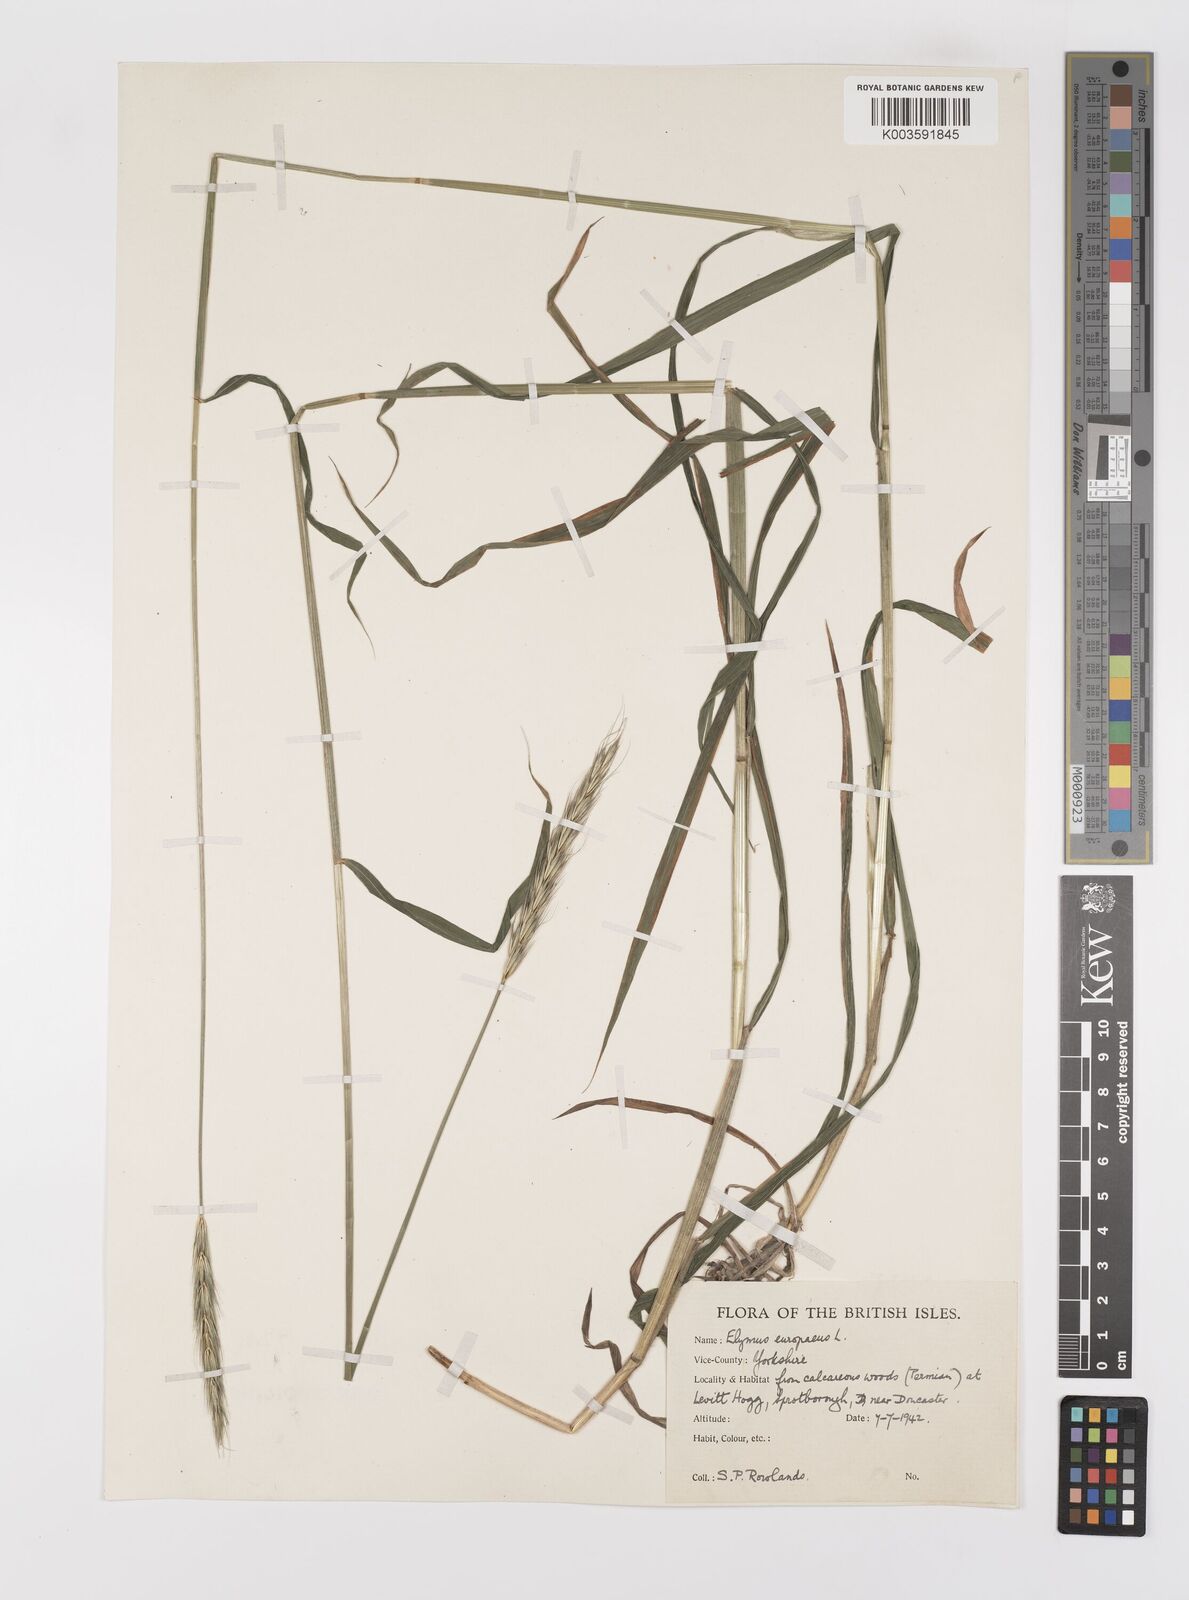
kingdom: Plantae
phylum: Tracheophyta
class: Liliopsida
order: Poales
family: Poaceae
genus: Hordelymus
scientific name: Hordelymus europaeus
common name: Wood-barley
